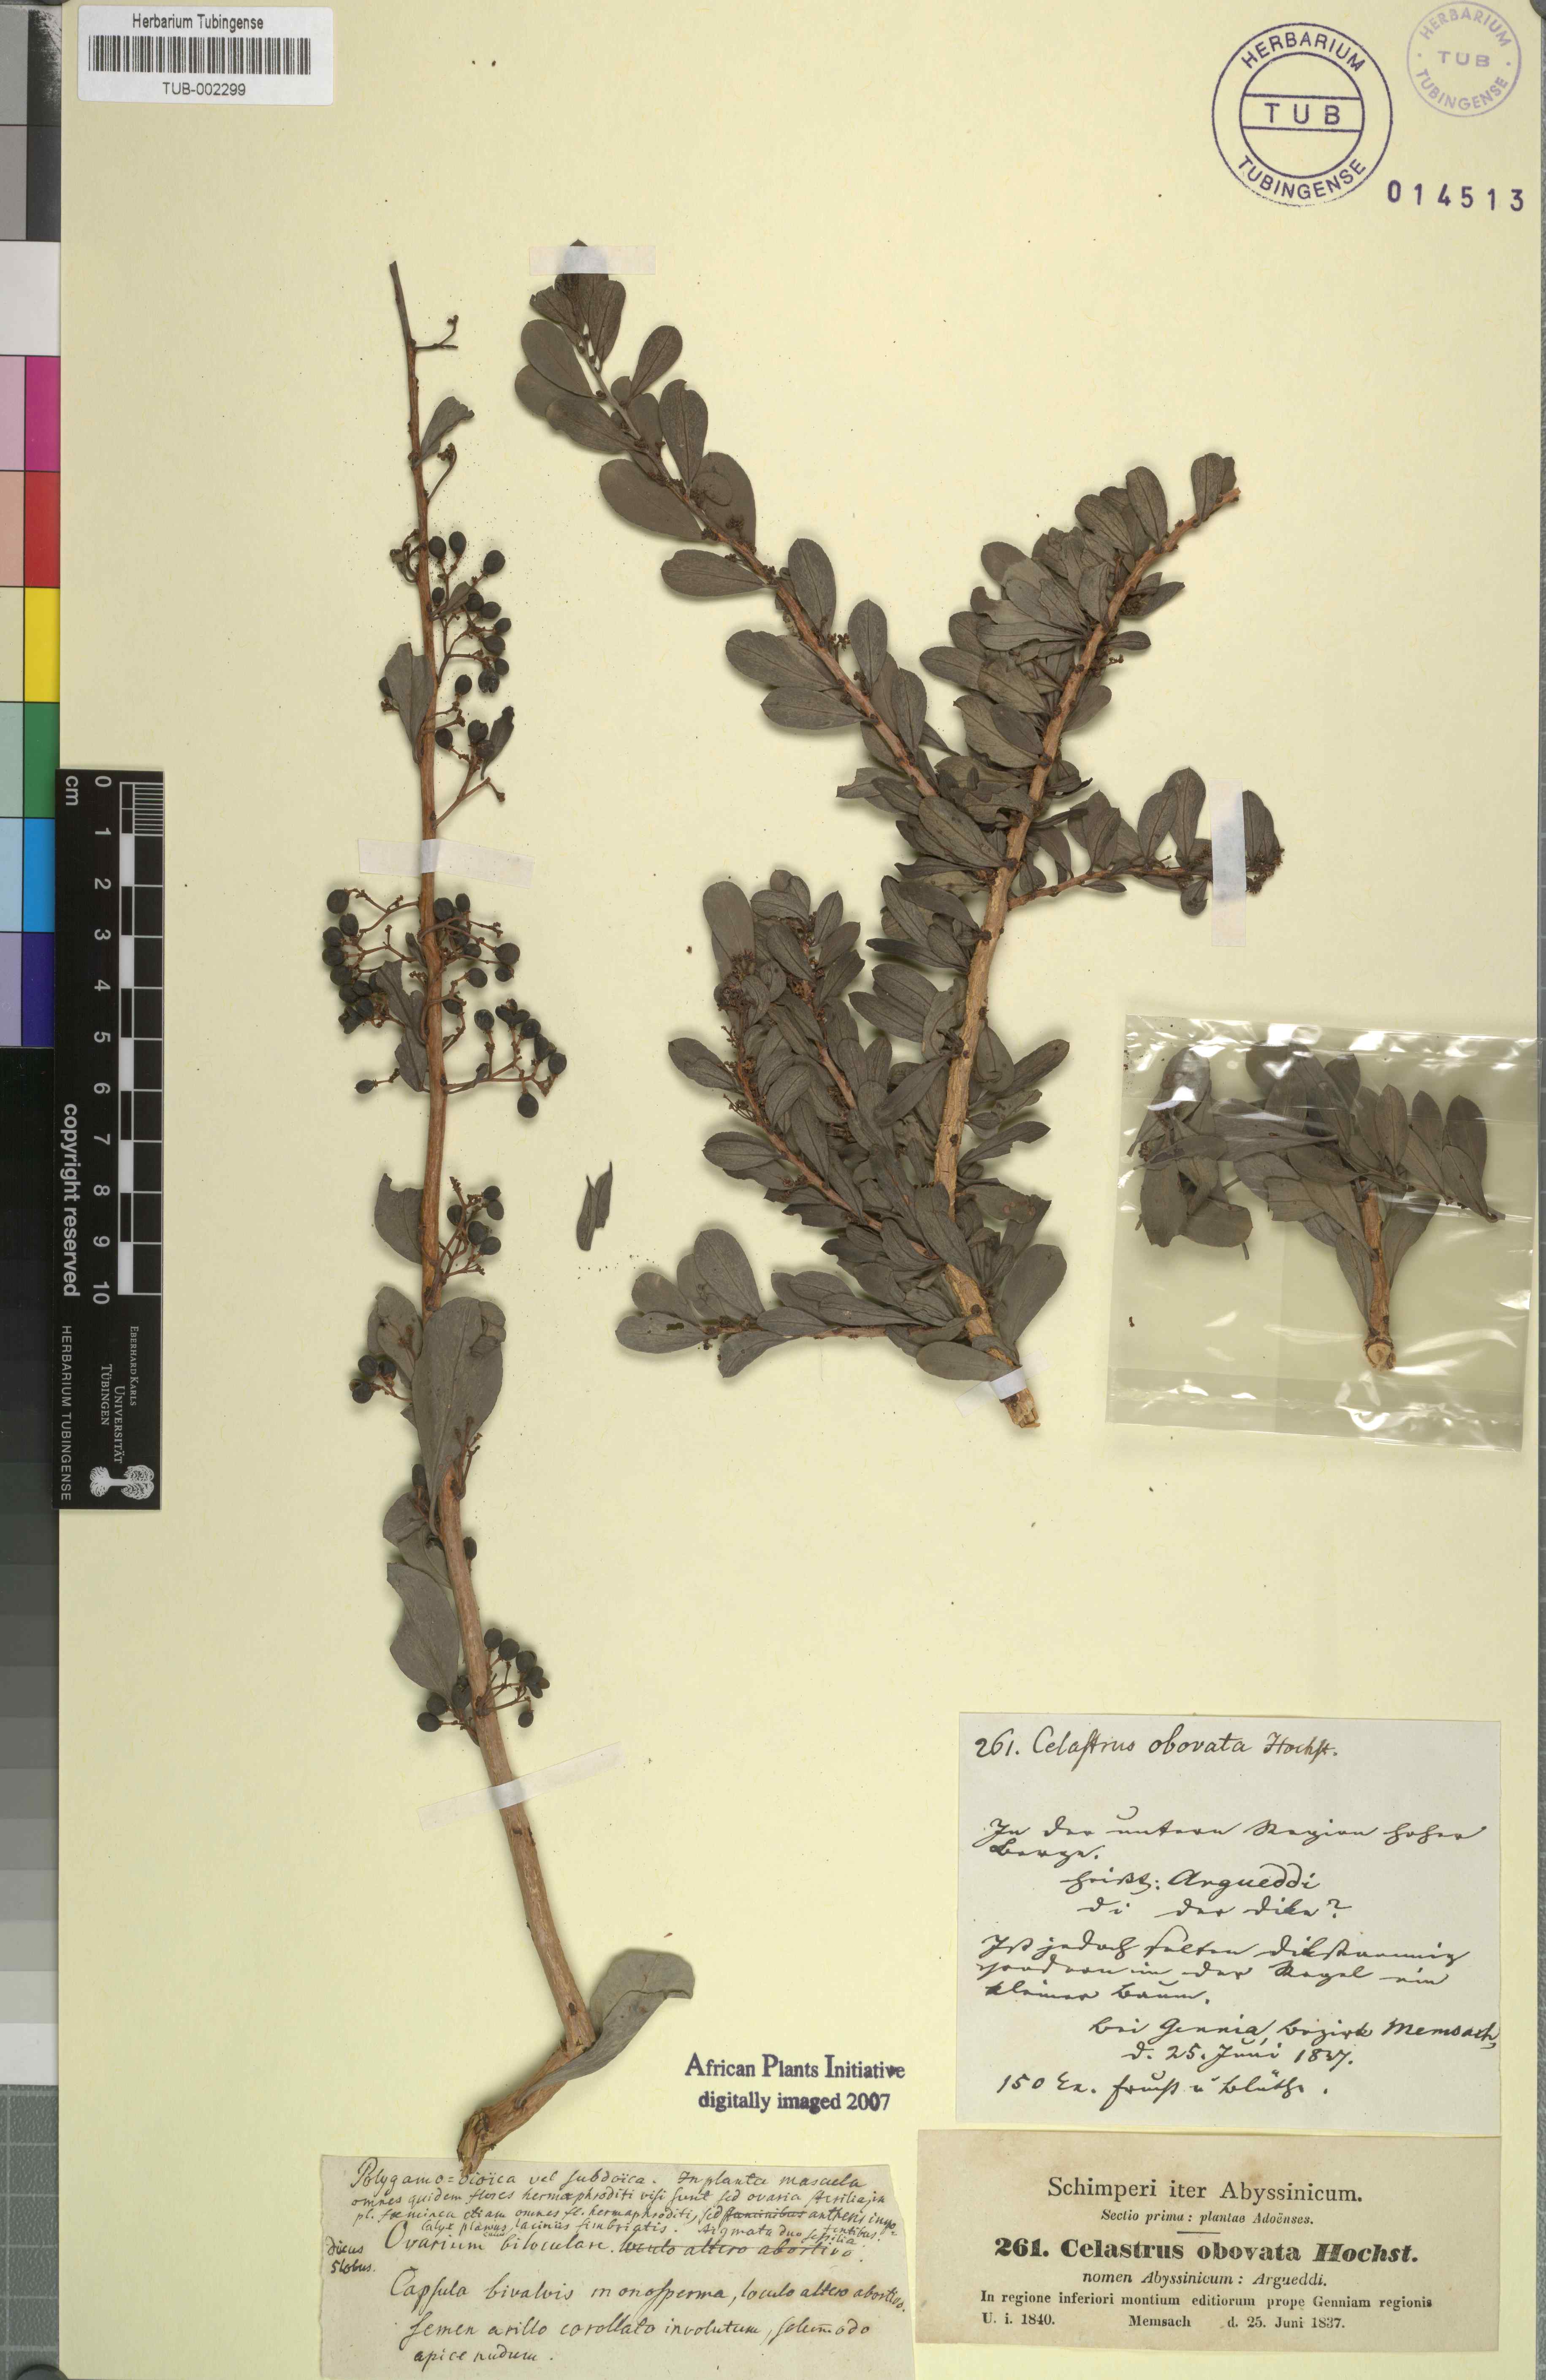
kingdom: Plantae
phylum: Tracheophyta
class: Magnoliopsida
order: Celastrales
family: Celastraceae
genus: Gymnosporia
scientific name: Gymnosporia senegalensis
